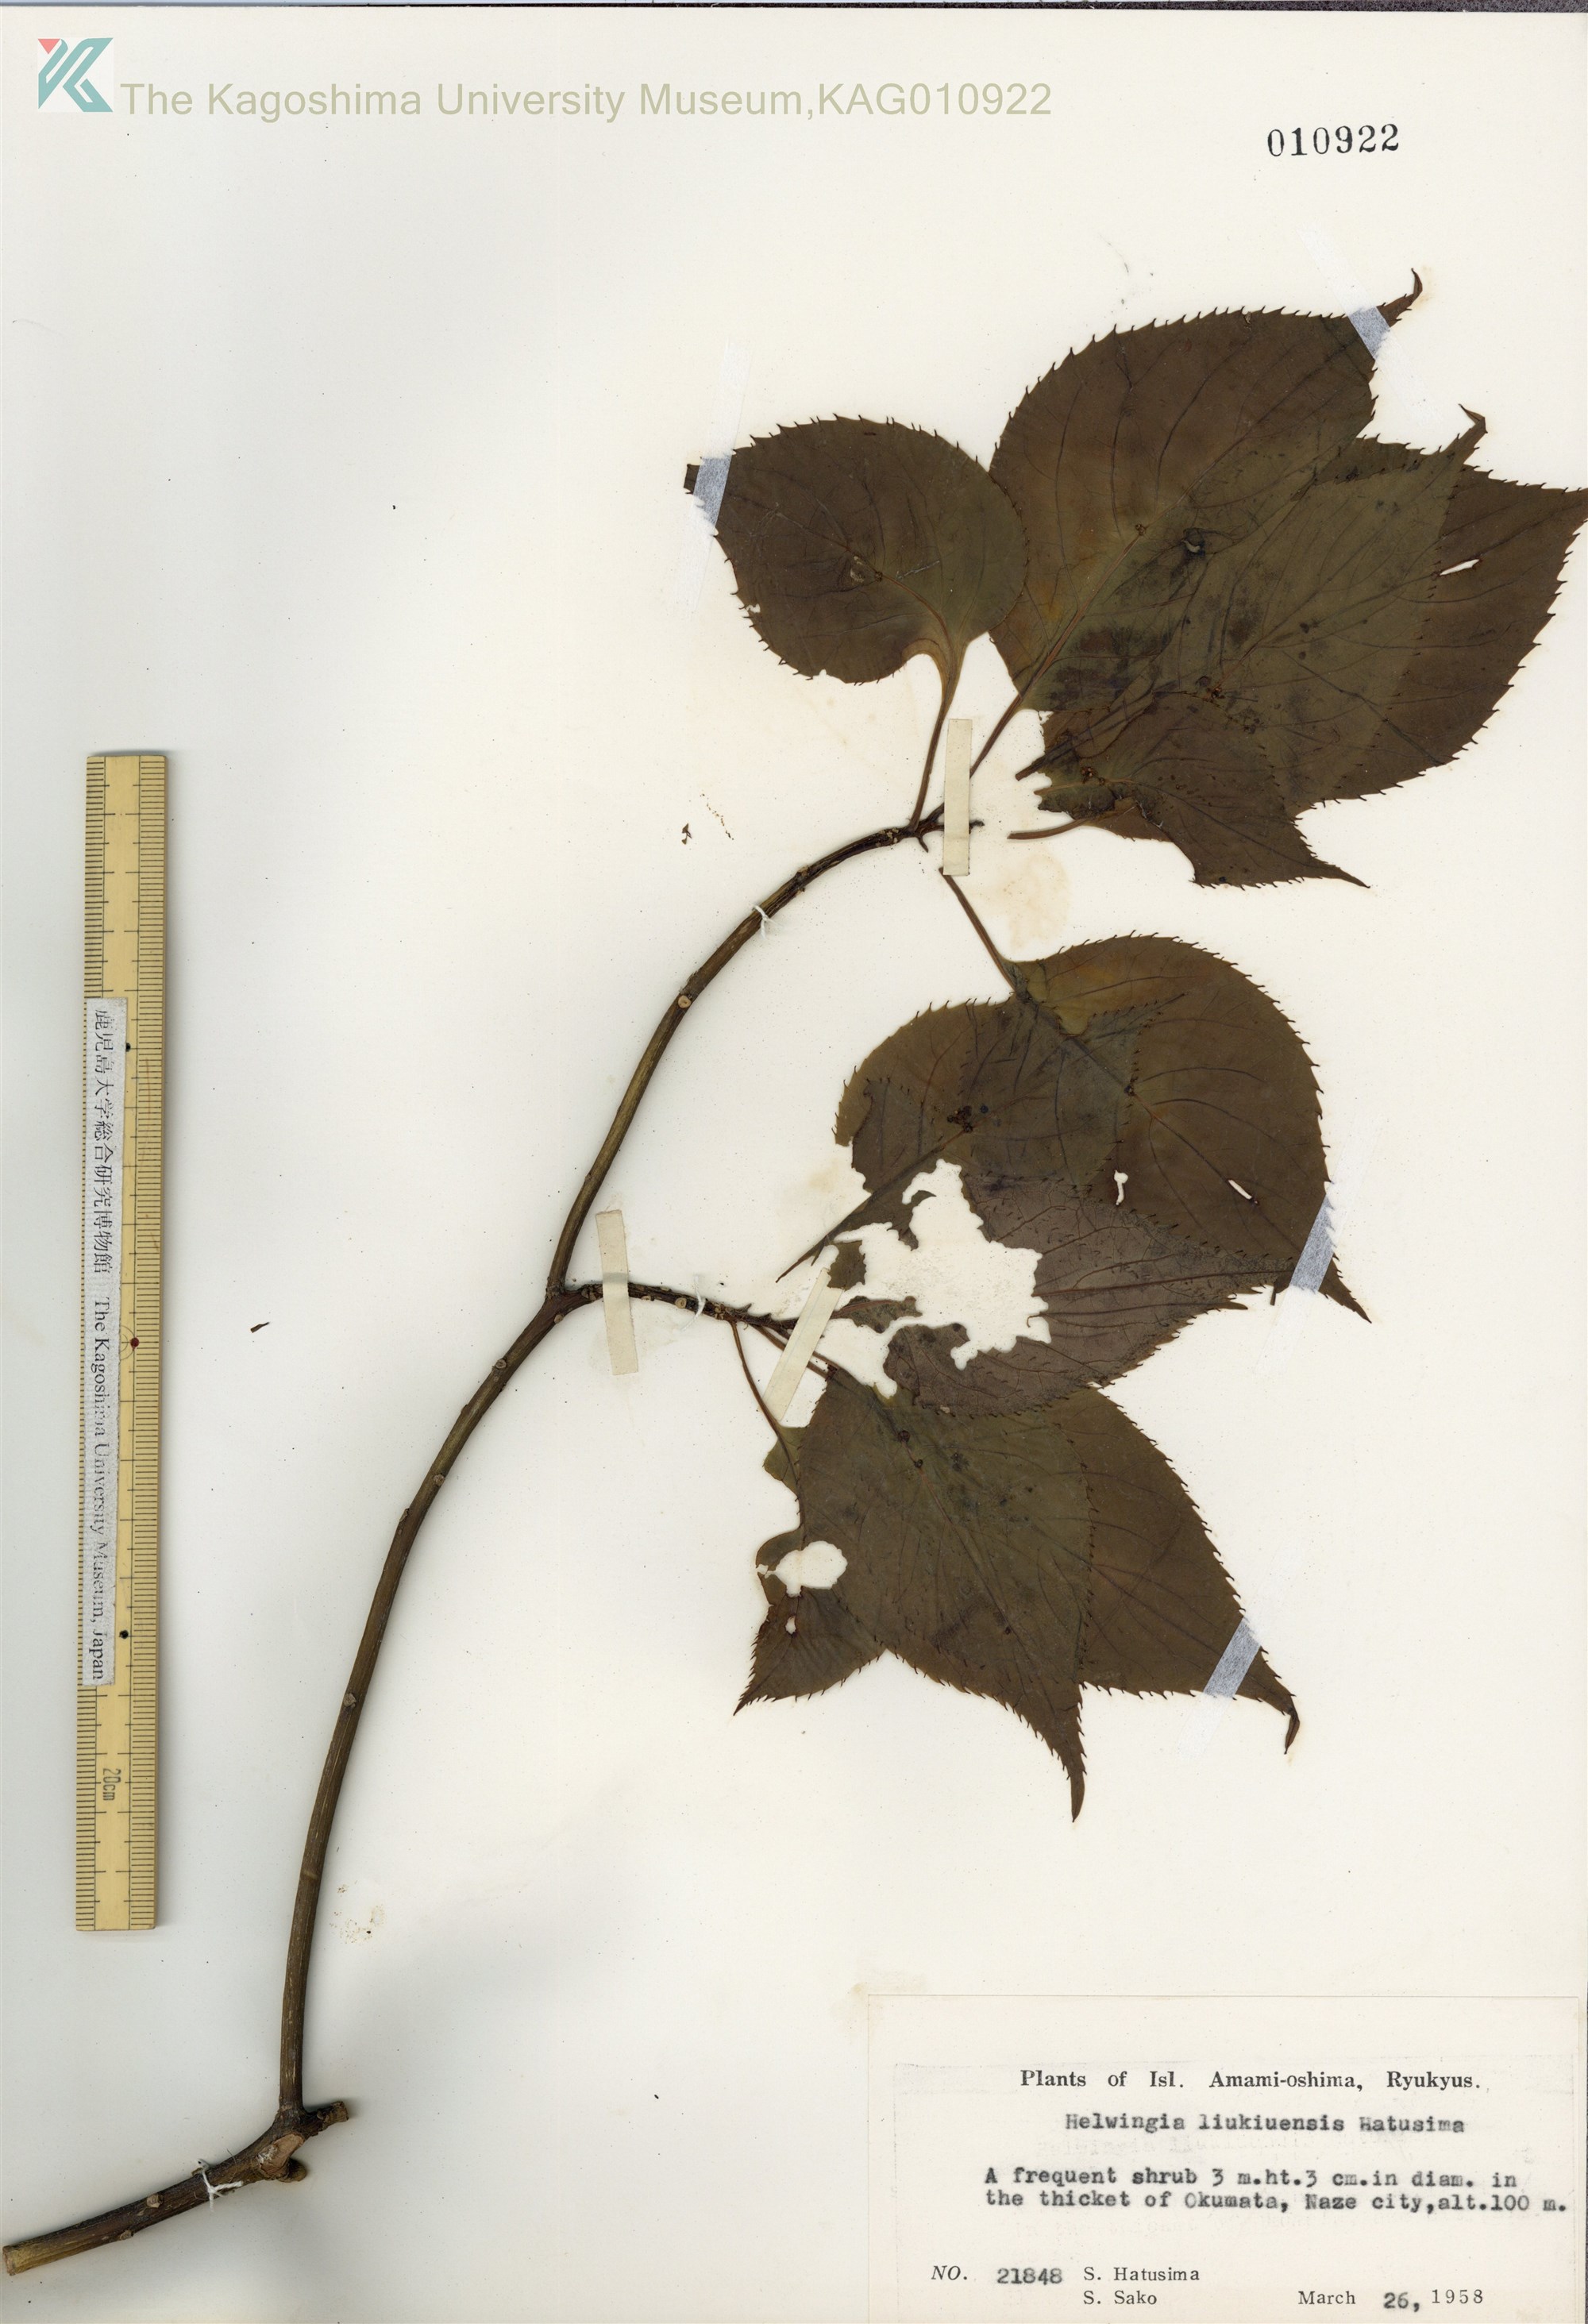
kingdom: Plantae
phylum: Tracheophyta
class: Magnoliopsida
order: Aquifoliales
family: Helwingiaceae
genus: Helwingia
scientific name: Helwingia japonica
